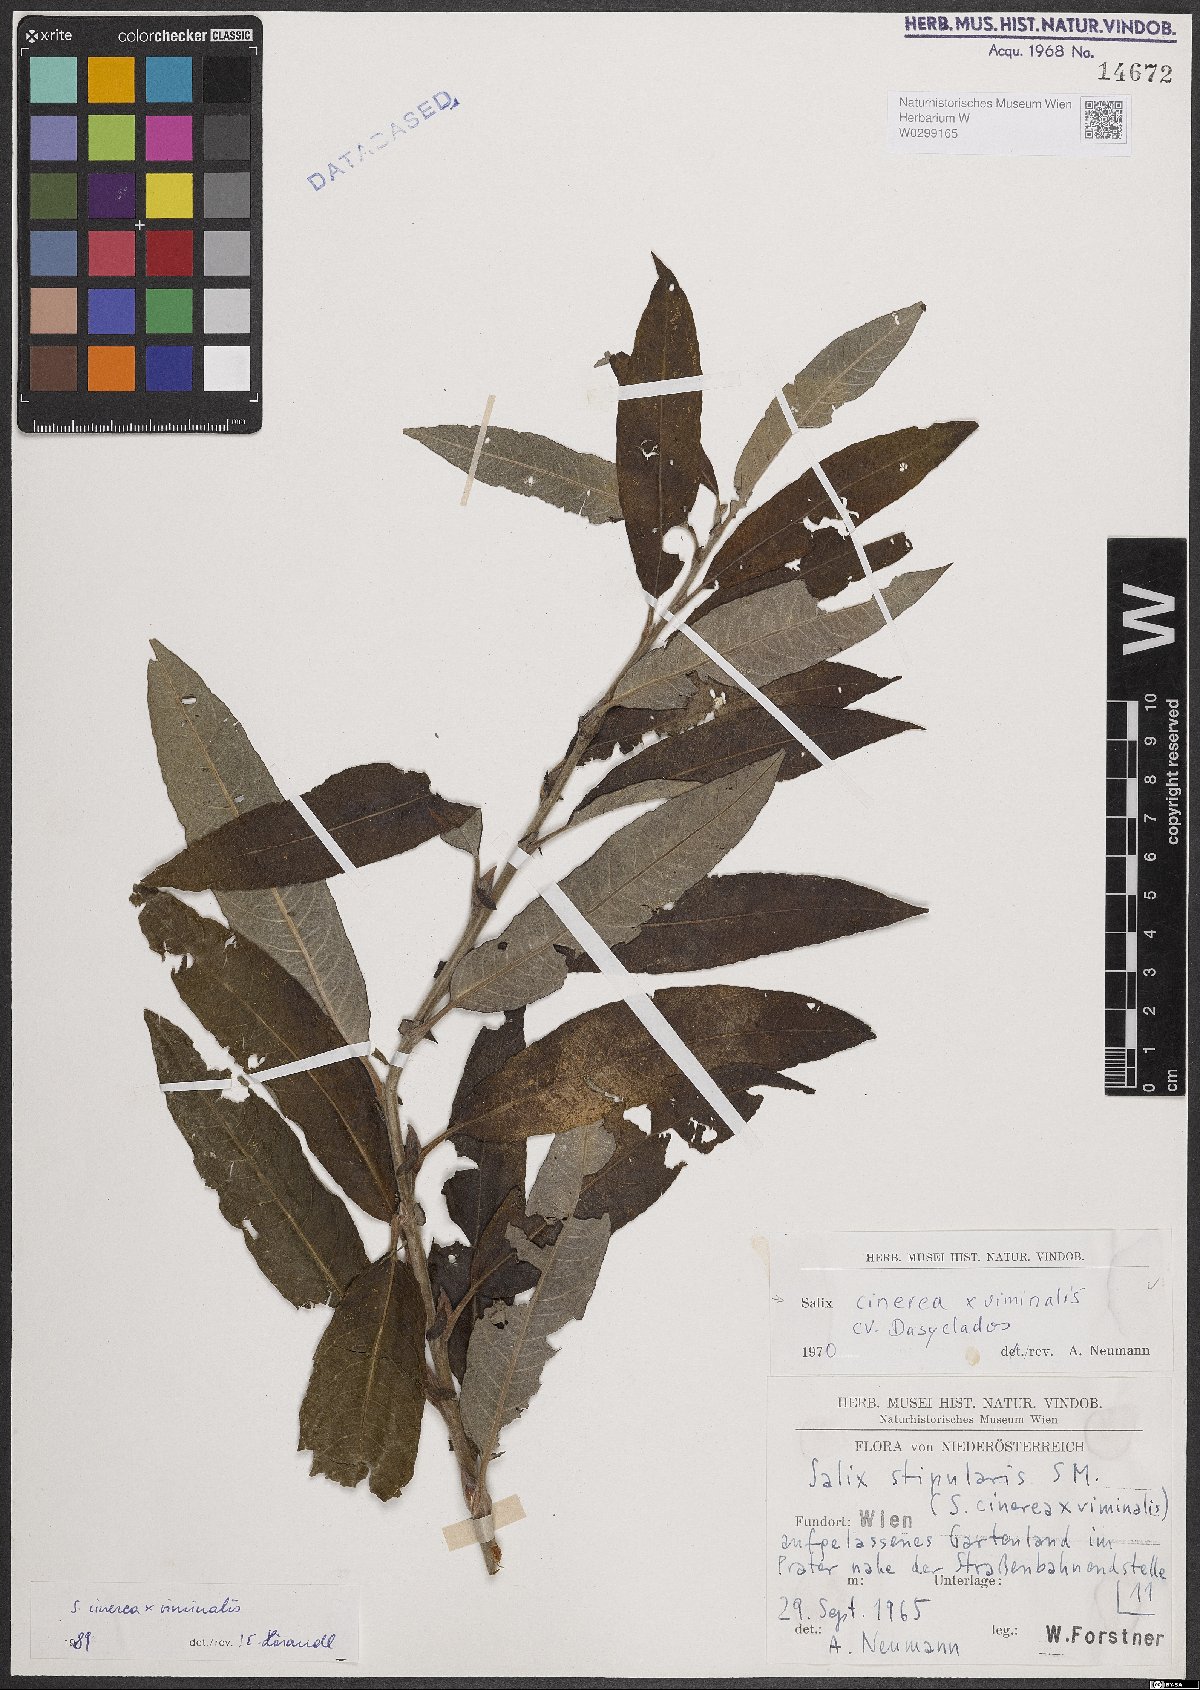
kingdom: Plantae
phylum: Tracheophyta
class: Magnoliopsida
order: Malpighiales
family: Salicaceae
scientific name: Salicaceae
